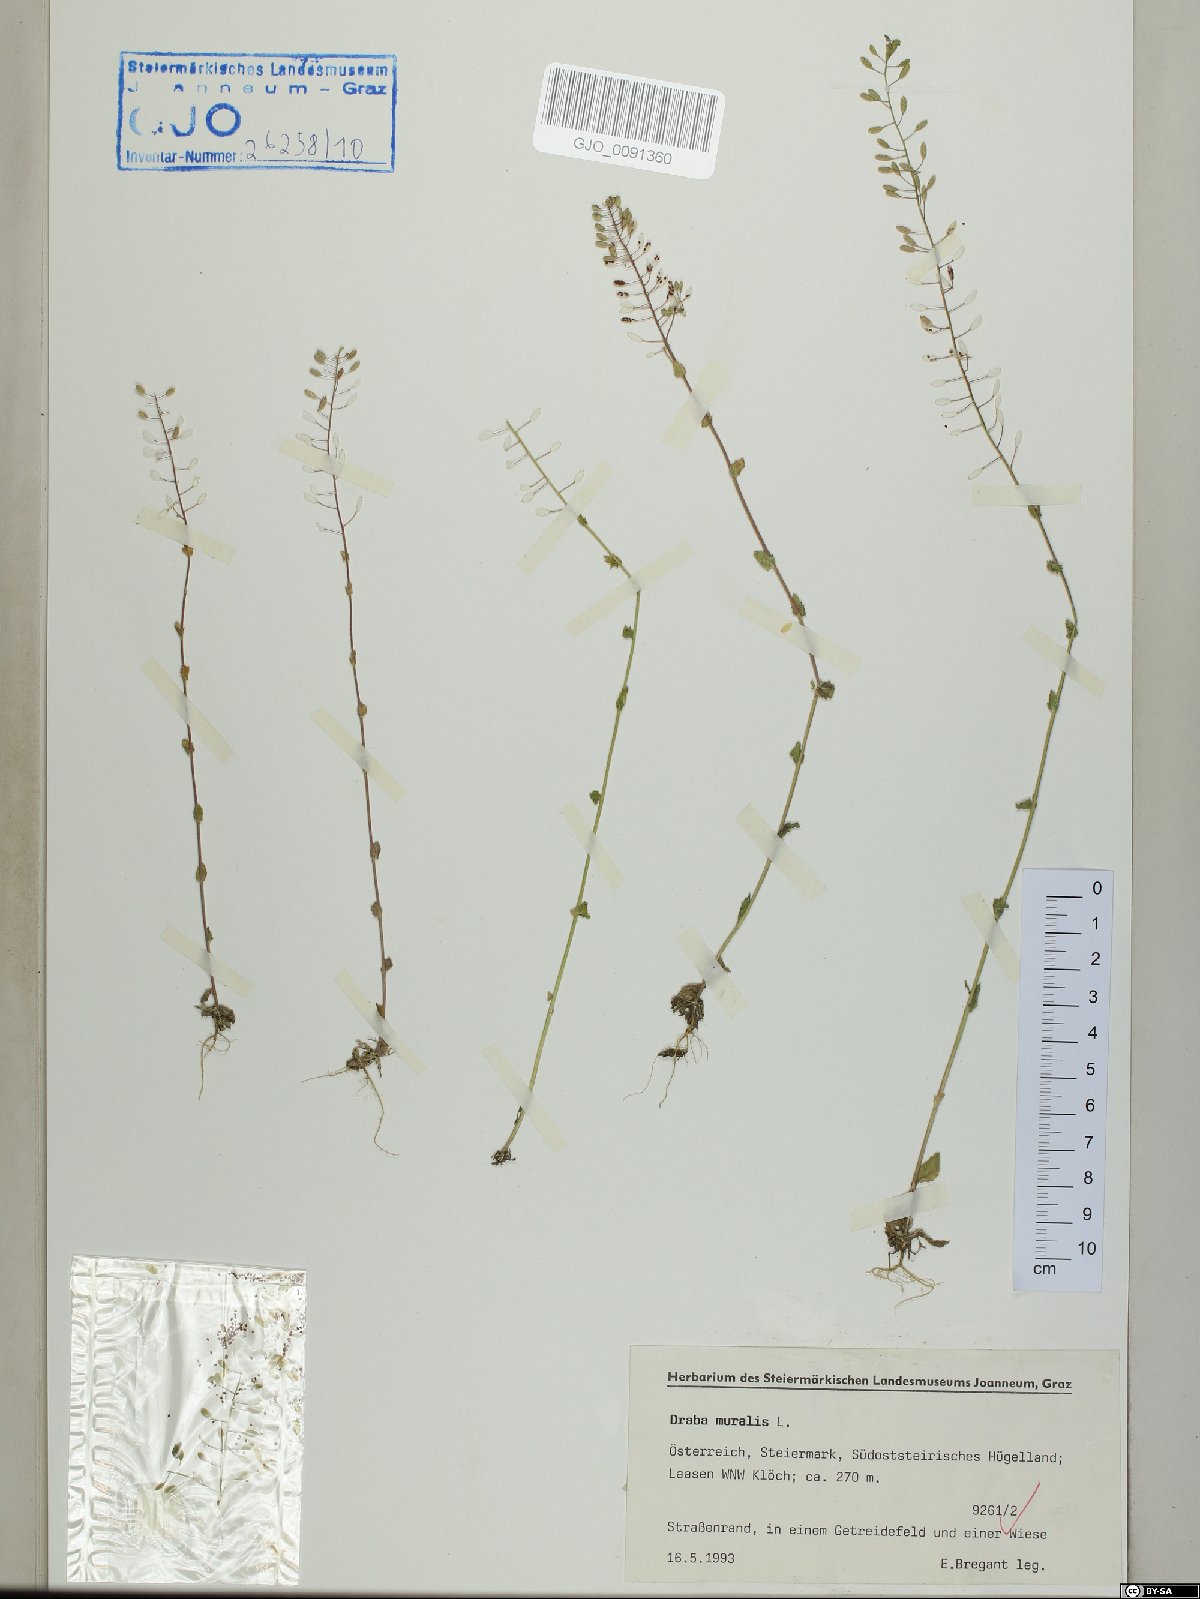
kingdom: Plantae
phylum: Tracheophyta
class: Magnoliopsida
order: Brassicales
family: Brassicaceae
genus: Drabella
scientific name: Drabella muralis
